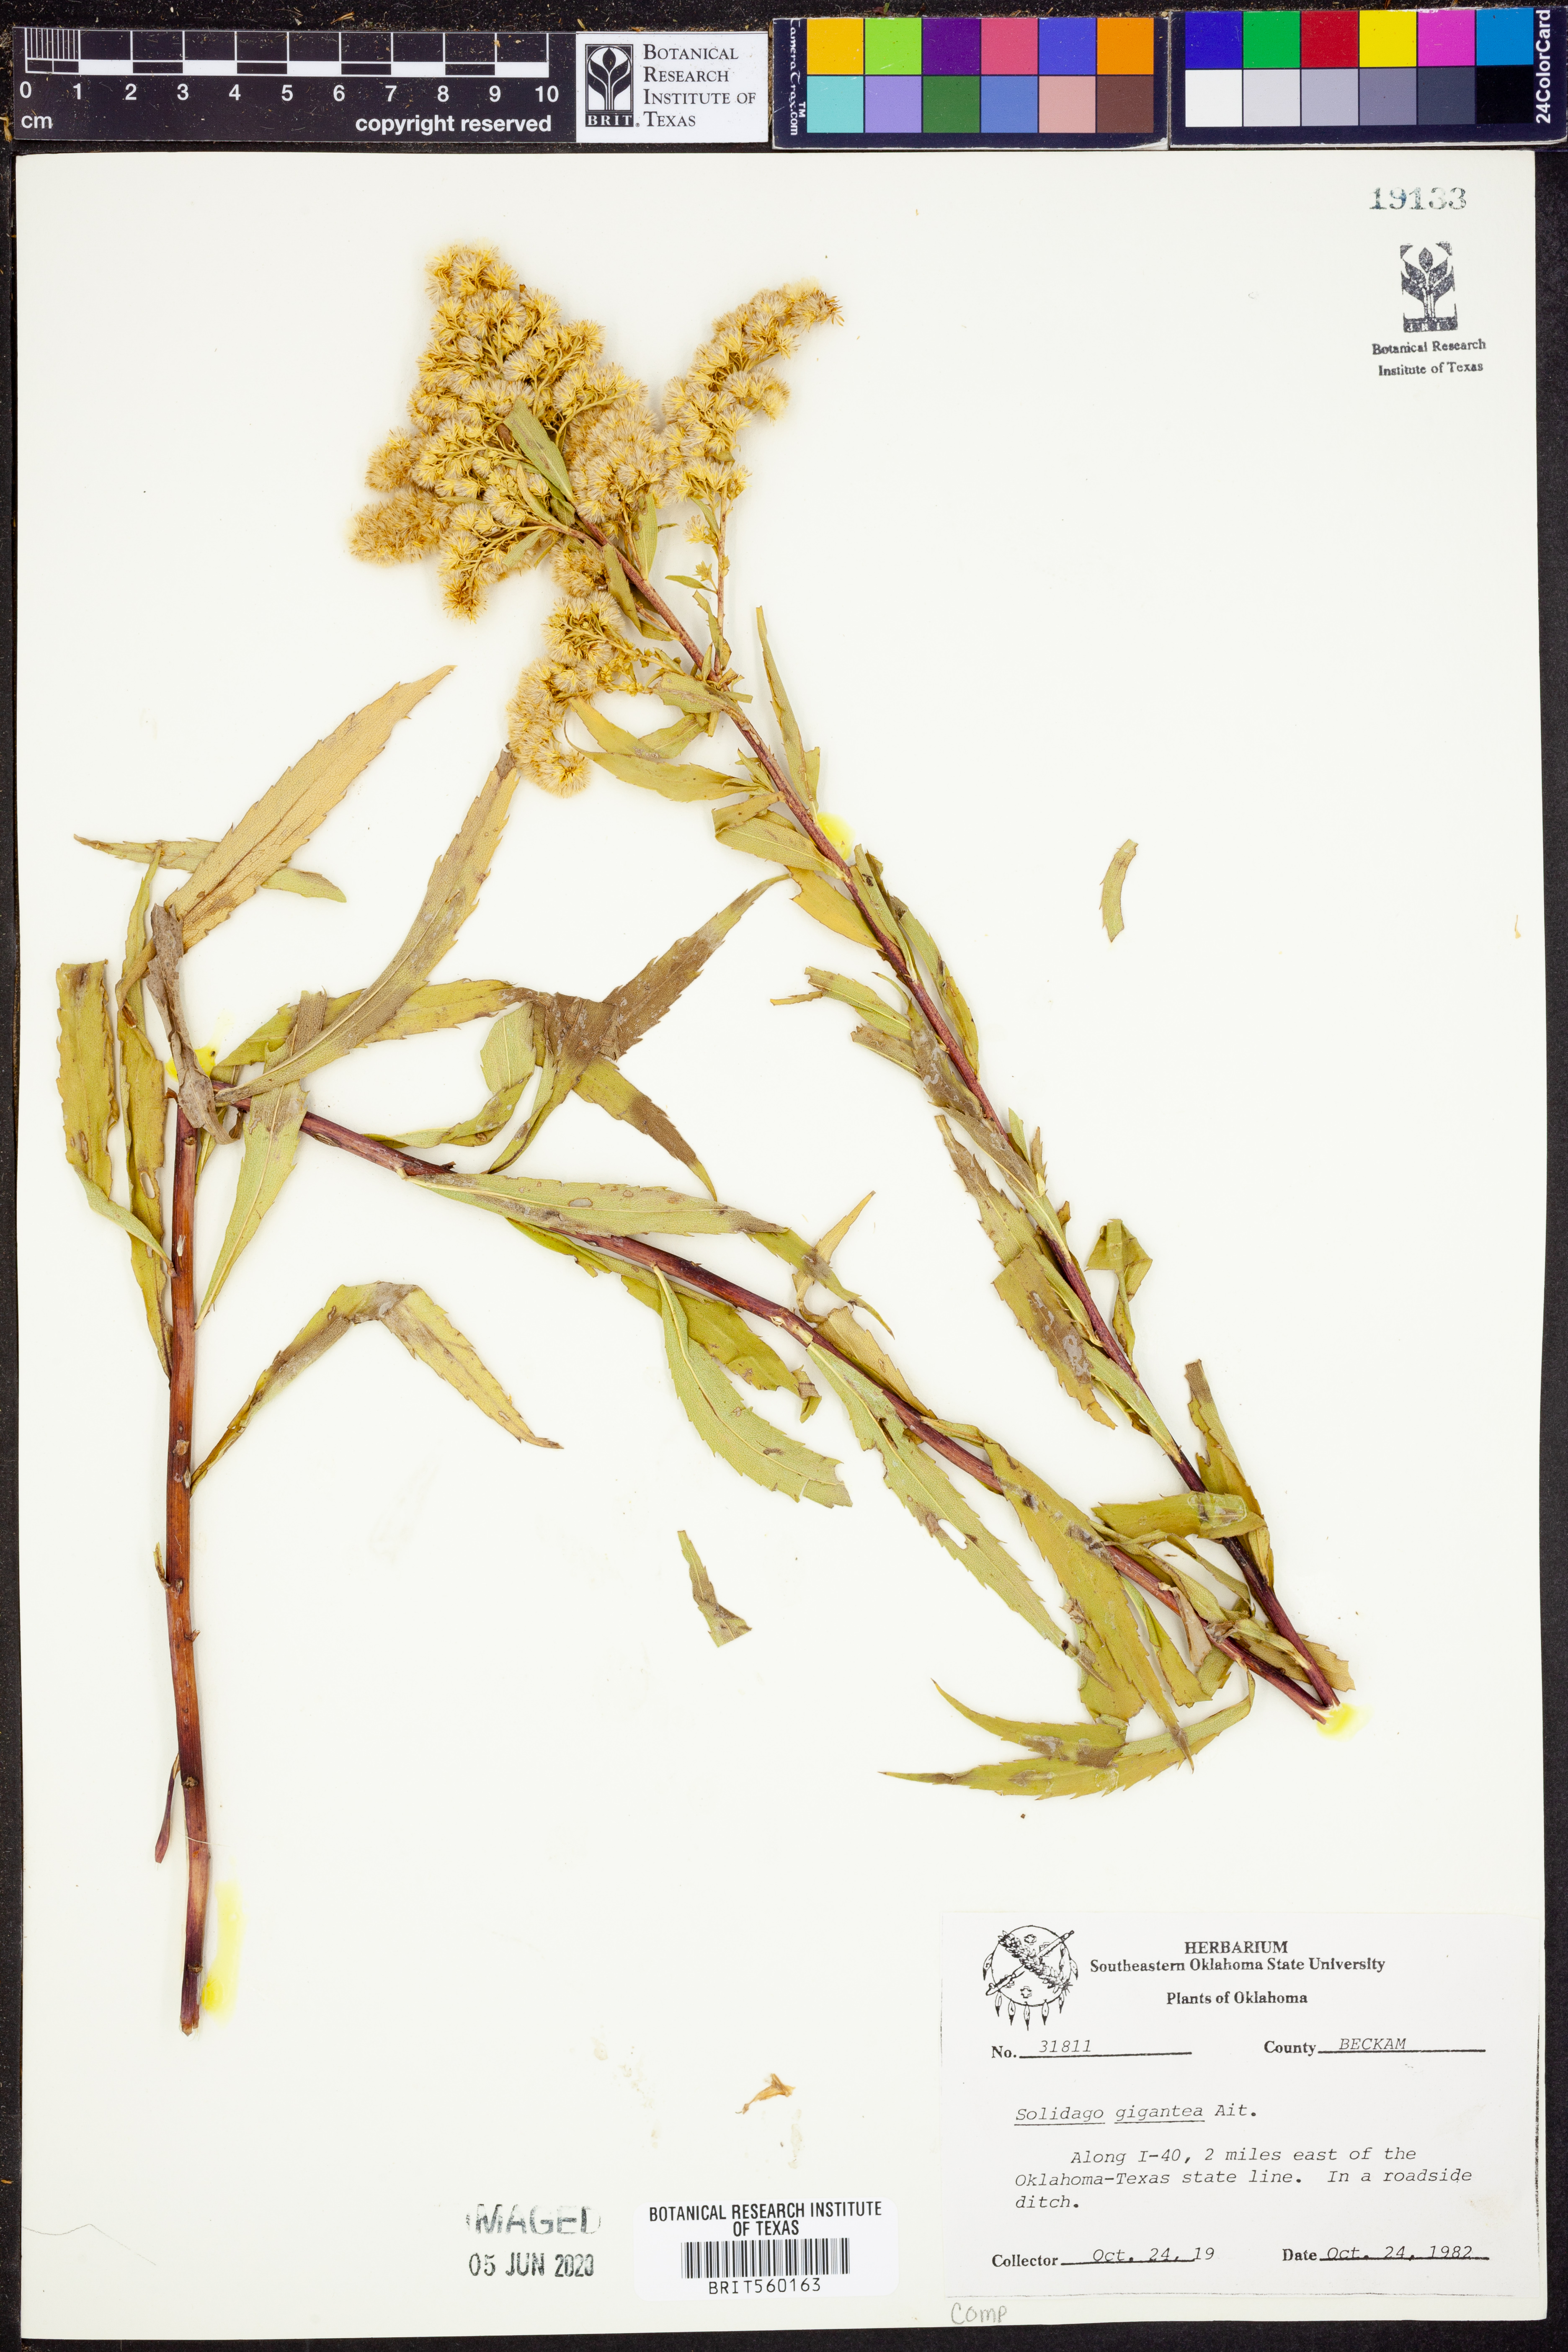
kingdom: Plantae
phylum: Tracheophyta
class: Magnoliopsida
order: Asterales
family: Asteraceae
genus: Solidago
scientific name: Solidago gigantea
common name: Giant goldenrod
